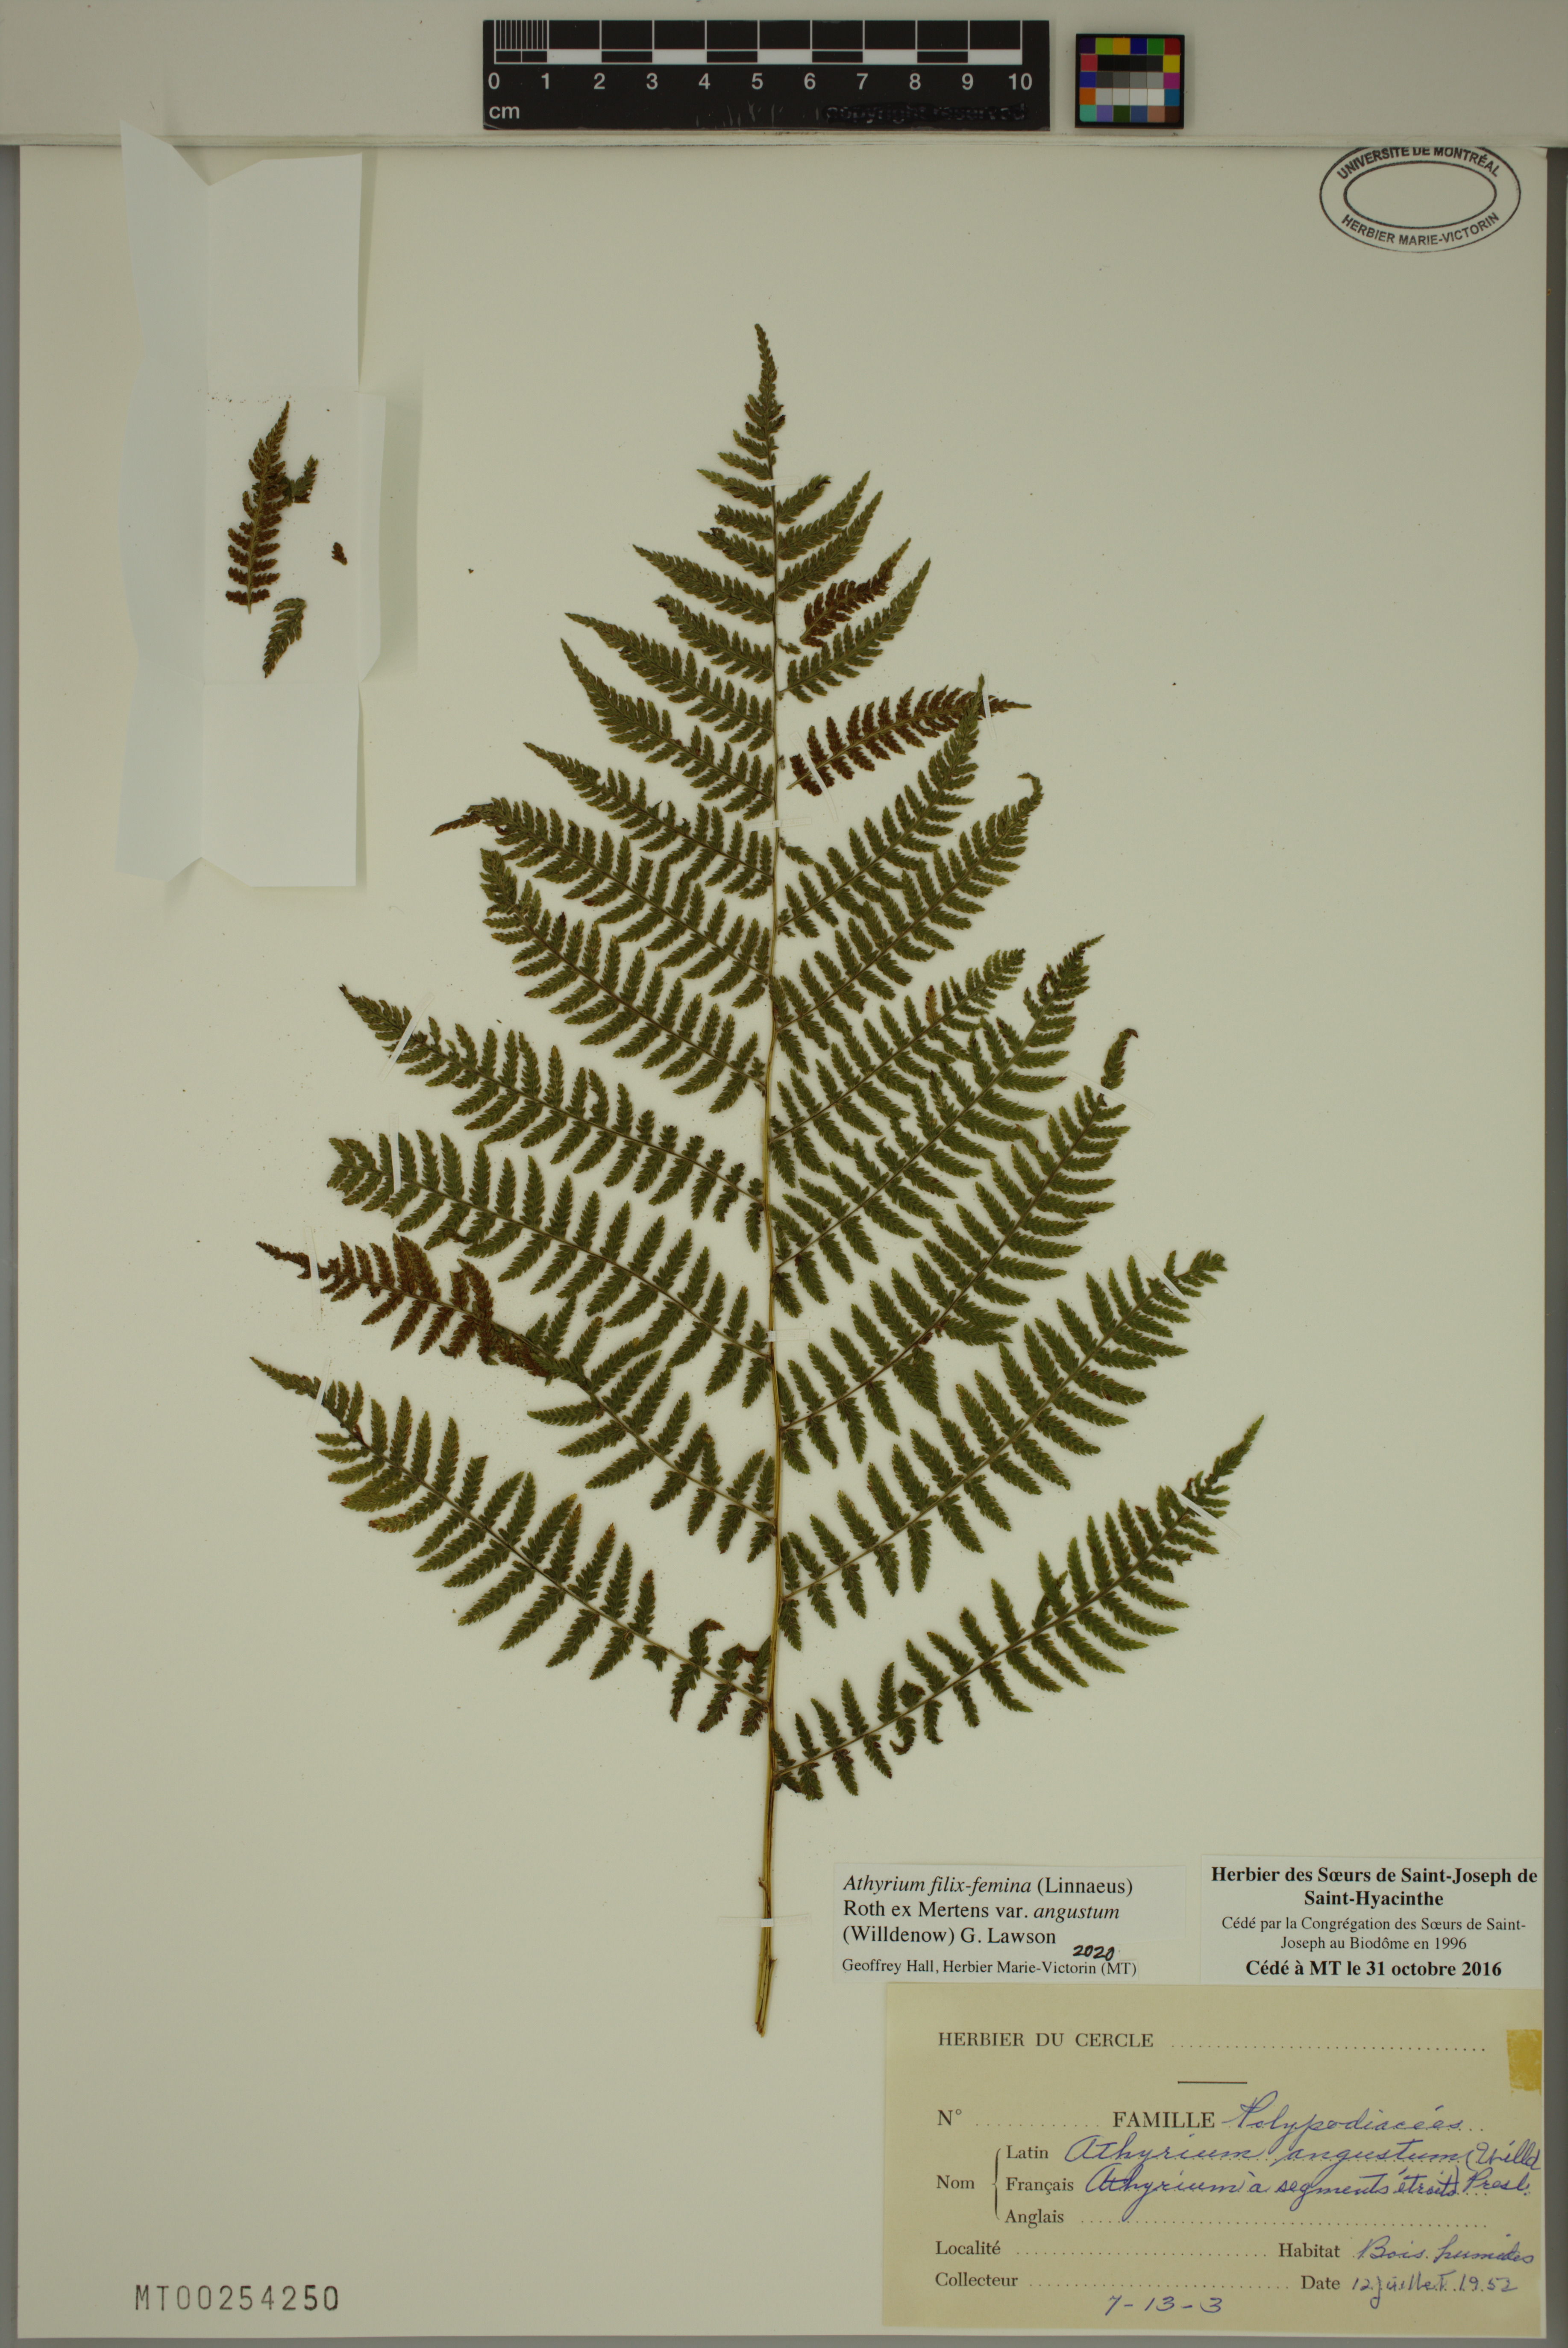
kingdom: Plantae
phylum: Tracheophyta
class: Polypodiopsida
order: Polypodiales
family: Athyriaceae
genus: Athyrium
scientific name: Athyrium angustum
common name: Northern lady fern
